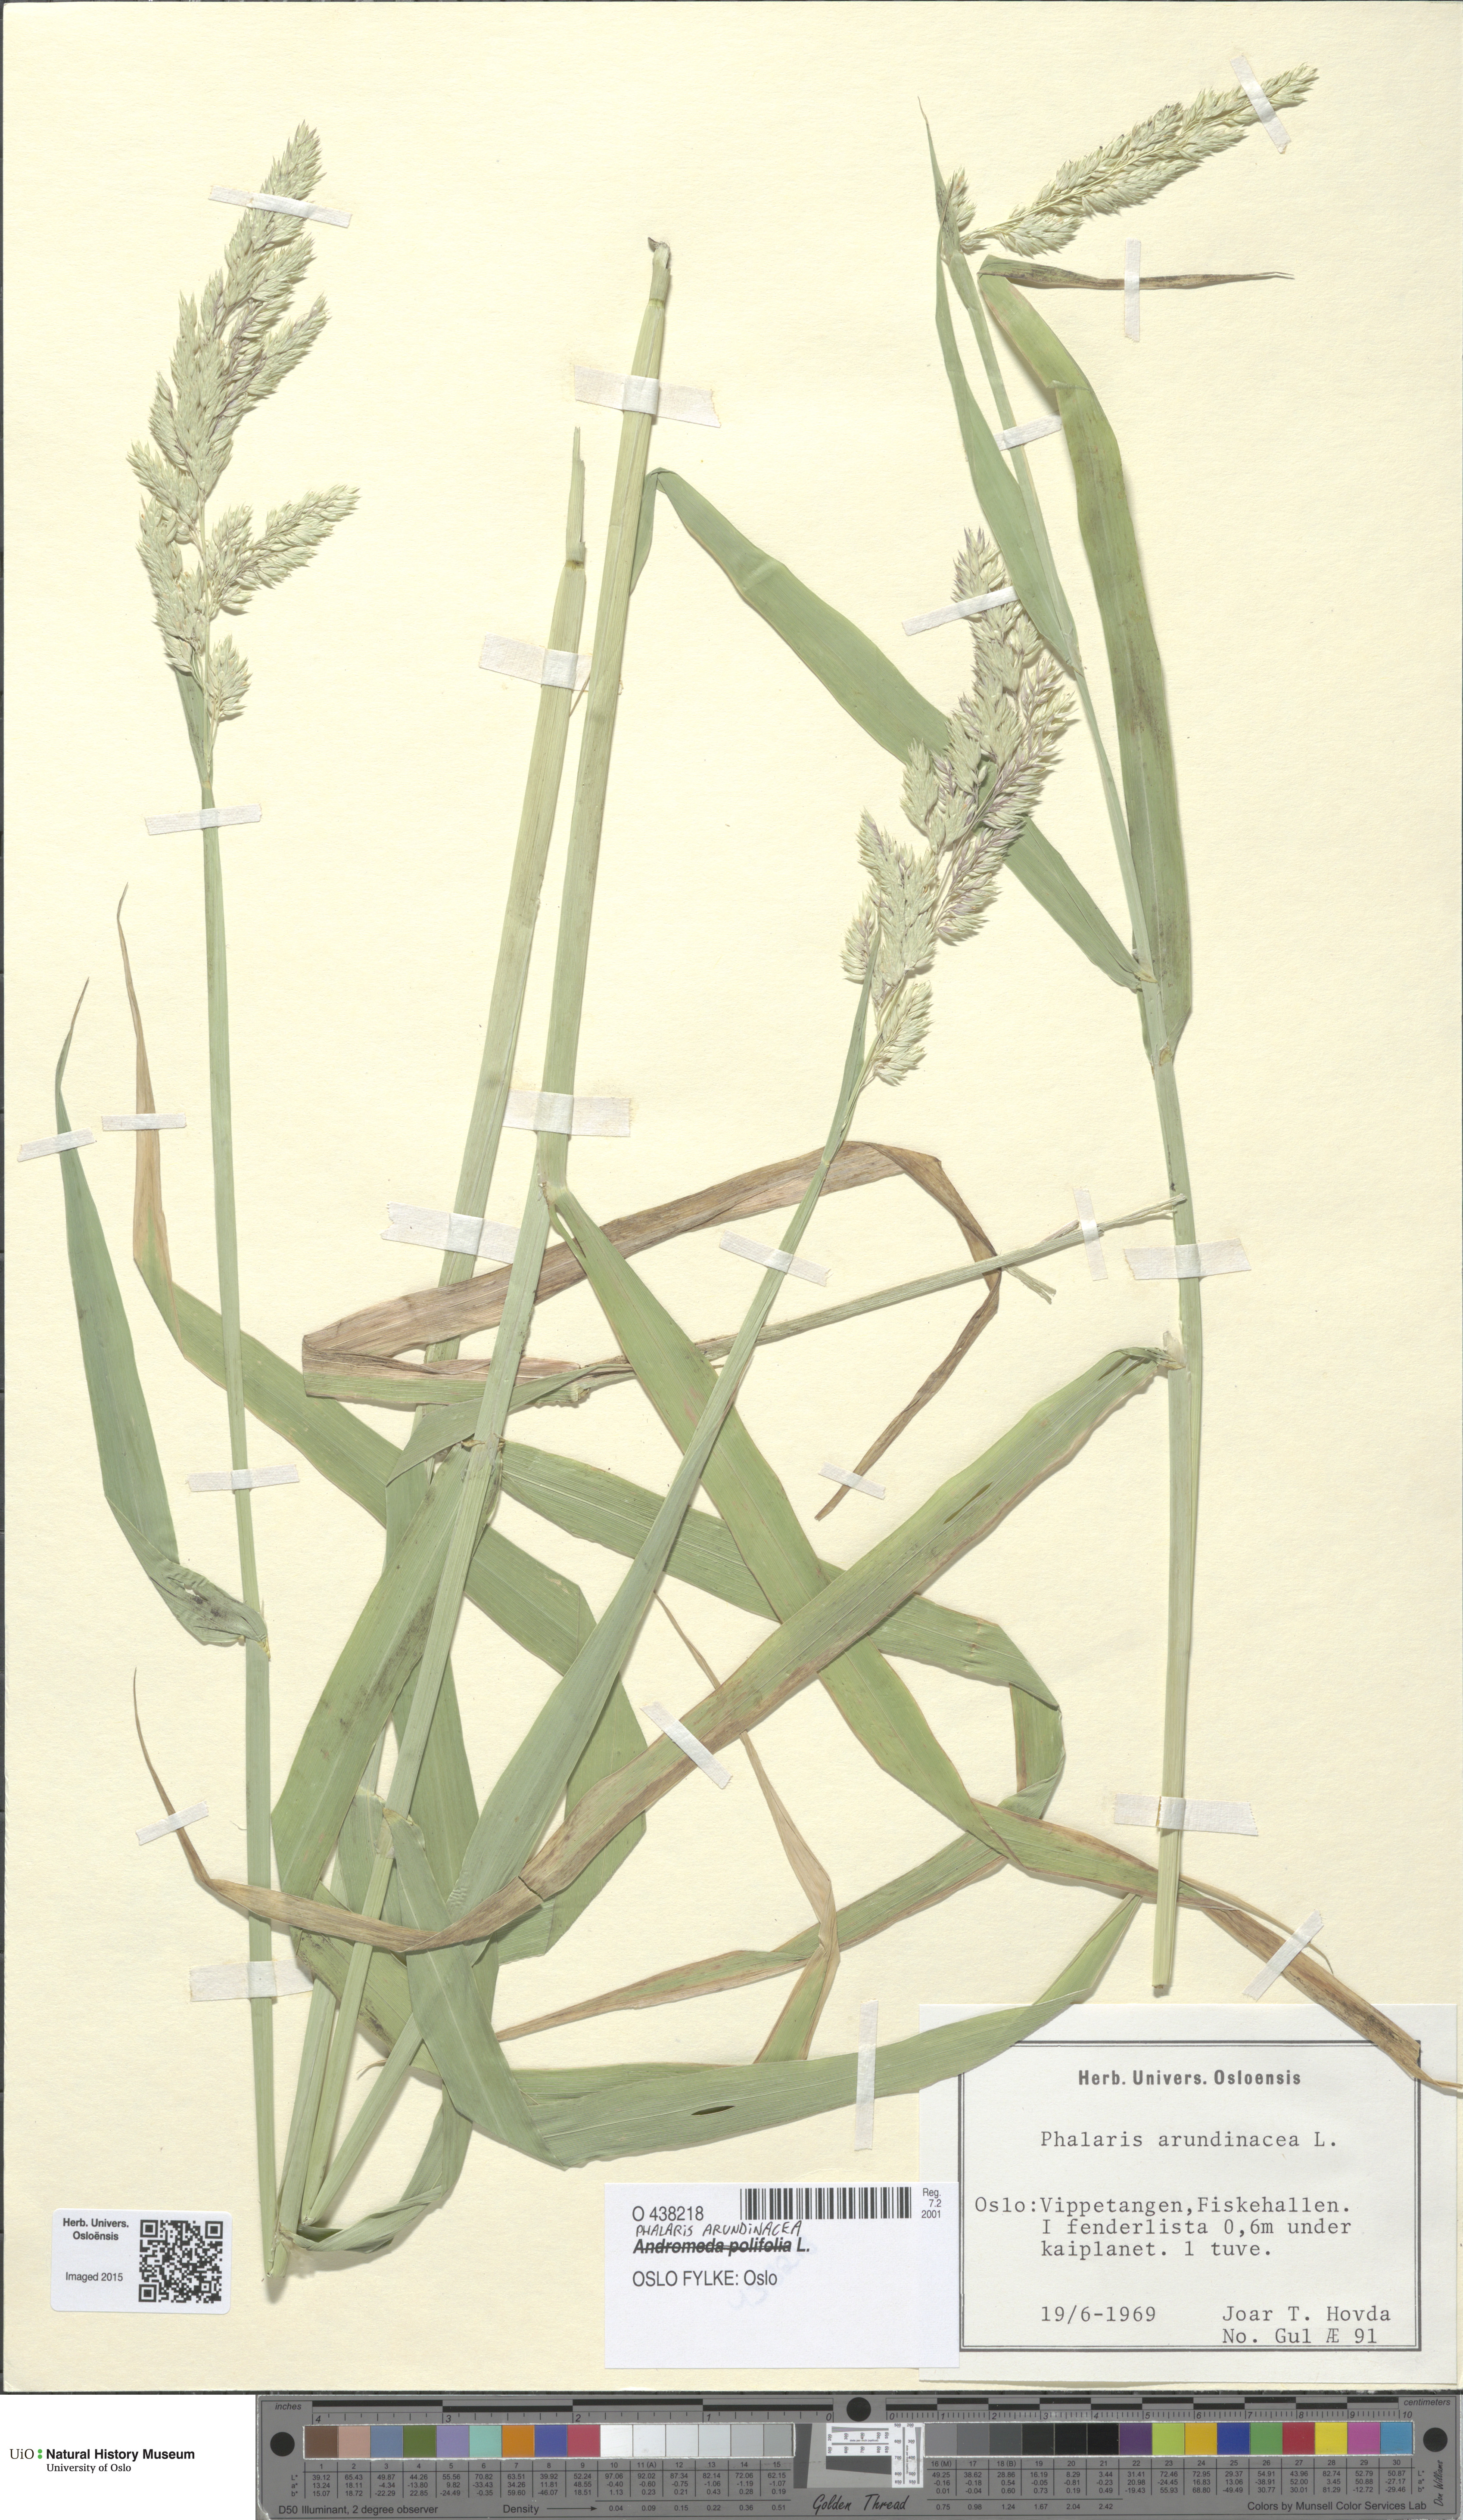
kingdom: Plantae
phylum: Tracheophyta
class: Liliopsida
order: Poales
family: Poaceae
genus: Phalaris
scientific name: Phalaris arundinacea
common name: Reed canary-grass
